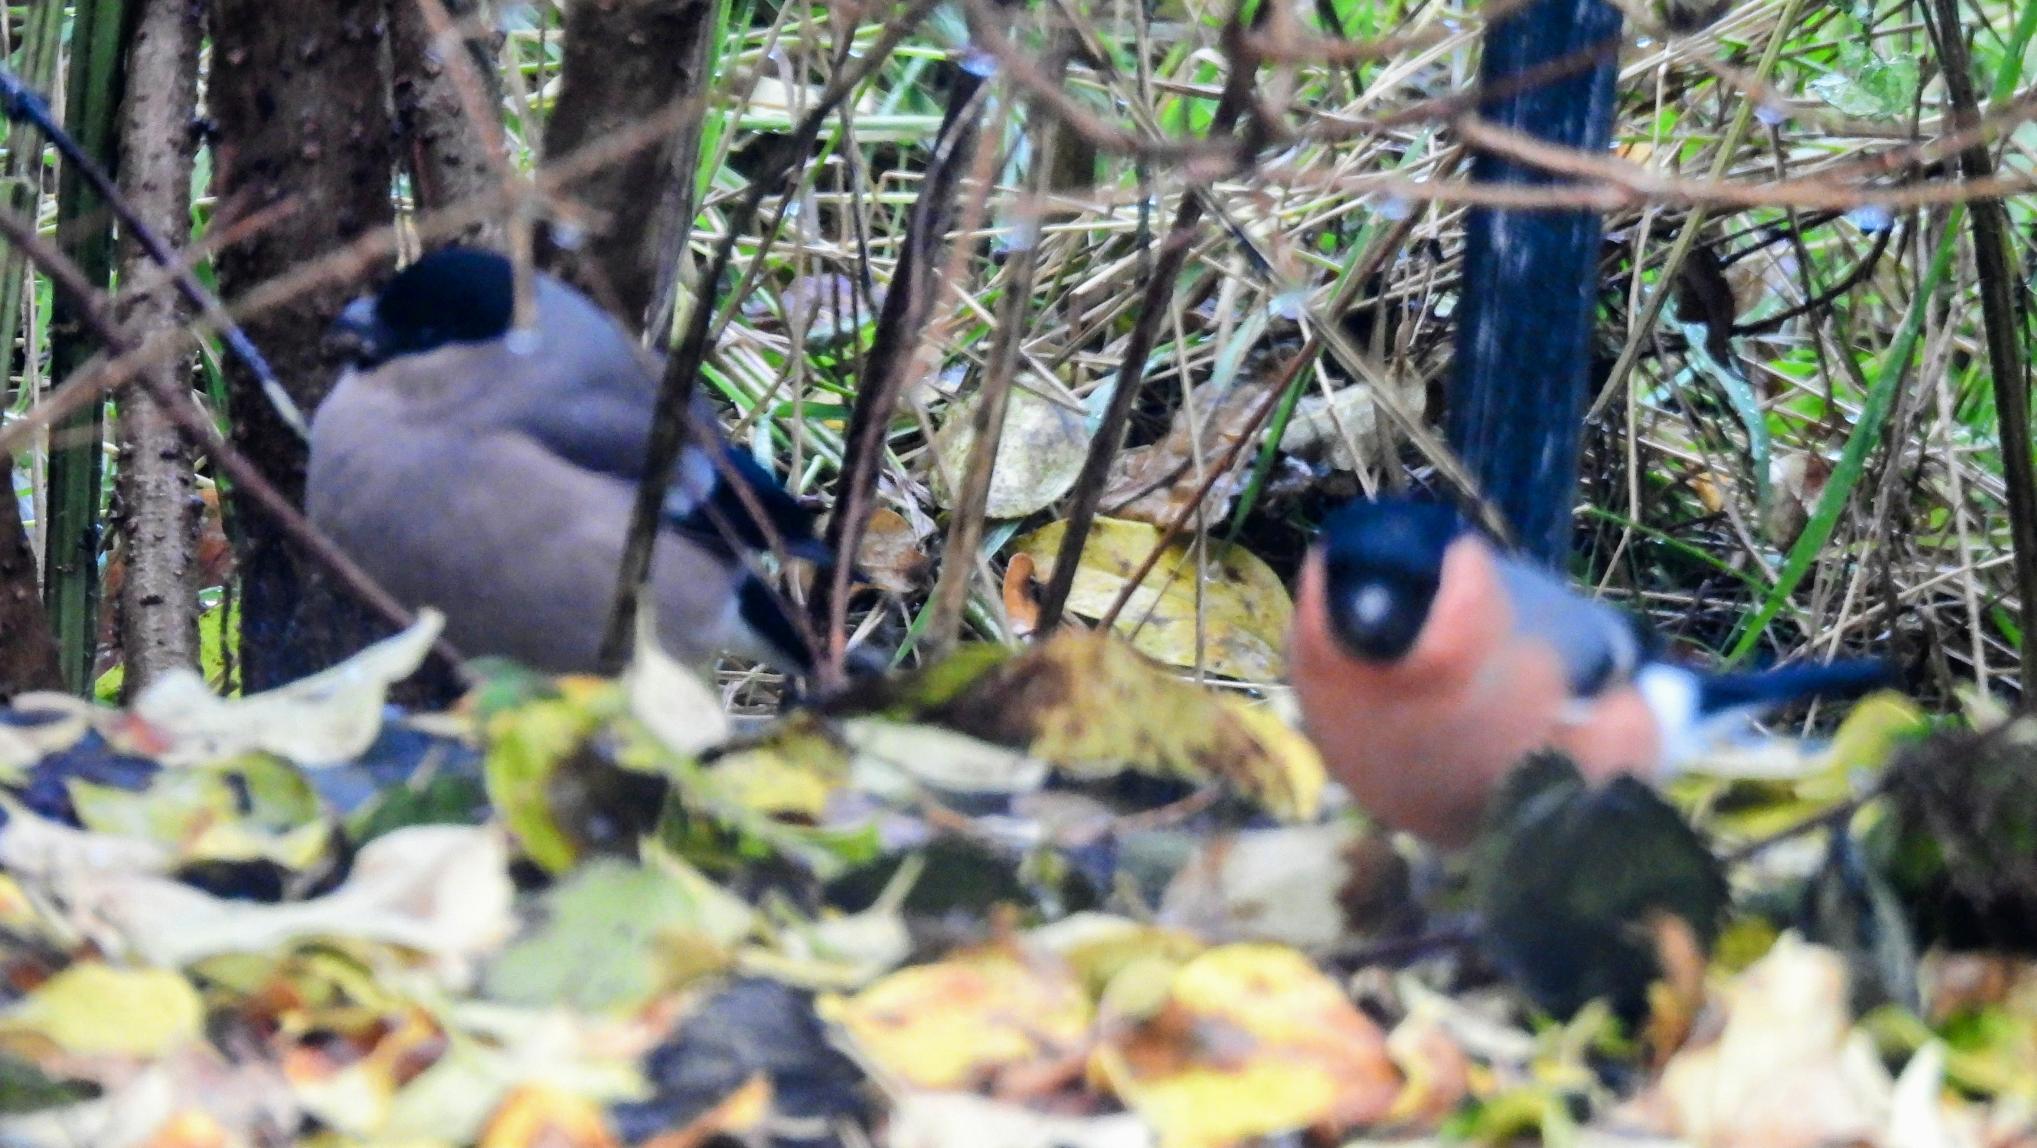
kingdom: Animalia
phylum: Chordata
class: Aves
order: Passeriformes
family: Fringillidae
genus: Pyrrhula
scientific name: Pyrrhula pyrrhula
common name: Dompap
